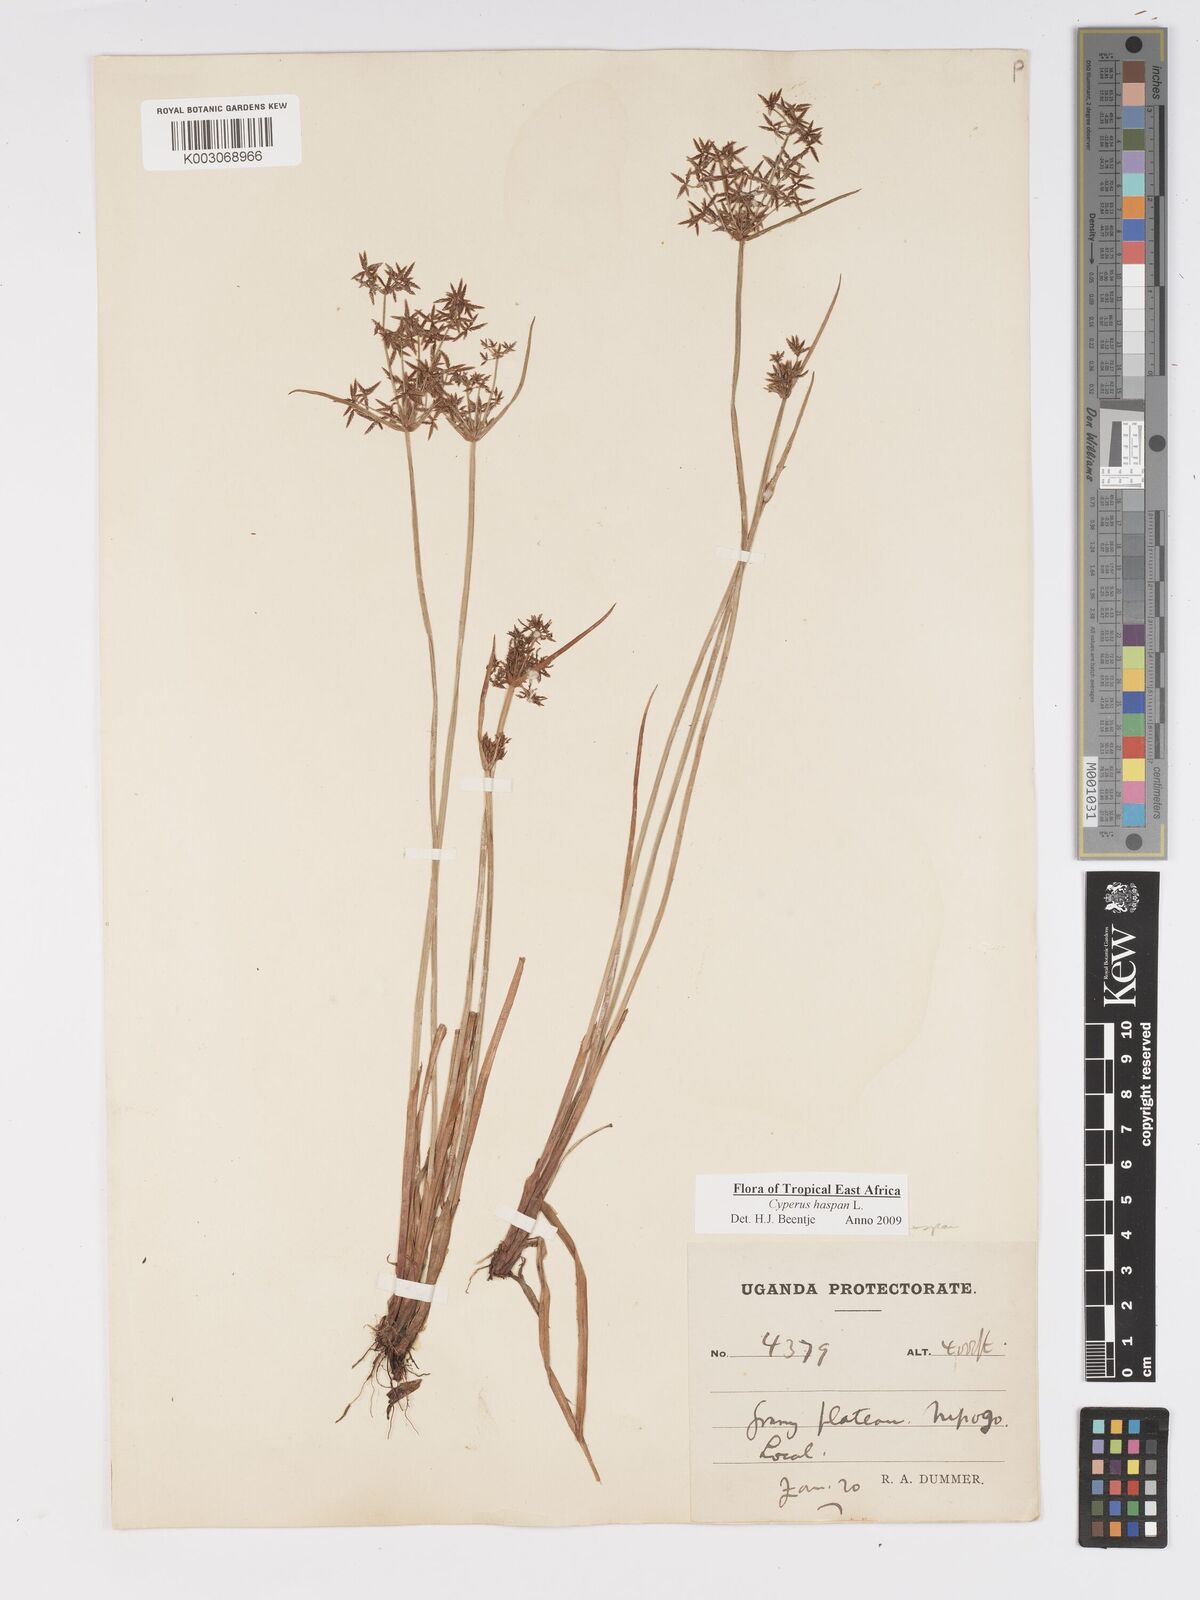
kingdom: Plantae
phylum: Tracheophyta
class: Liliopsida
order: Poales
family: Cyperaceae
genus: Cyperus
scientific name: Cyperus haspan
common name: Haspan flatsedge
